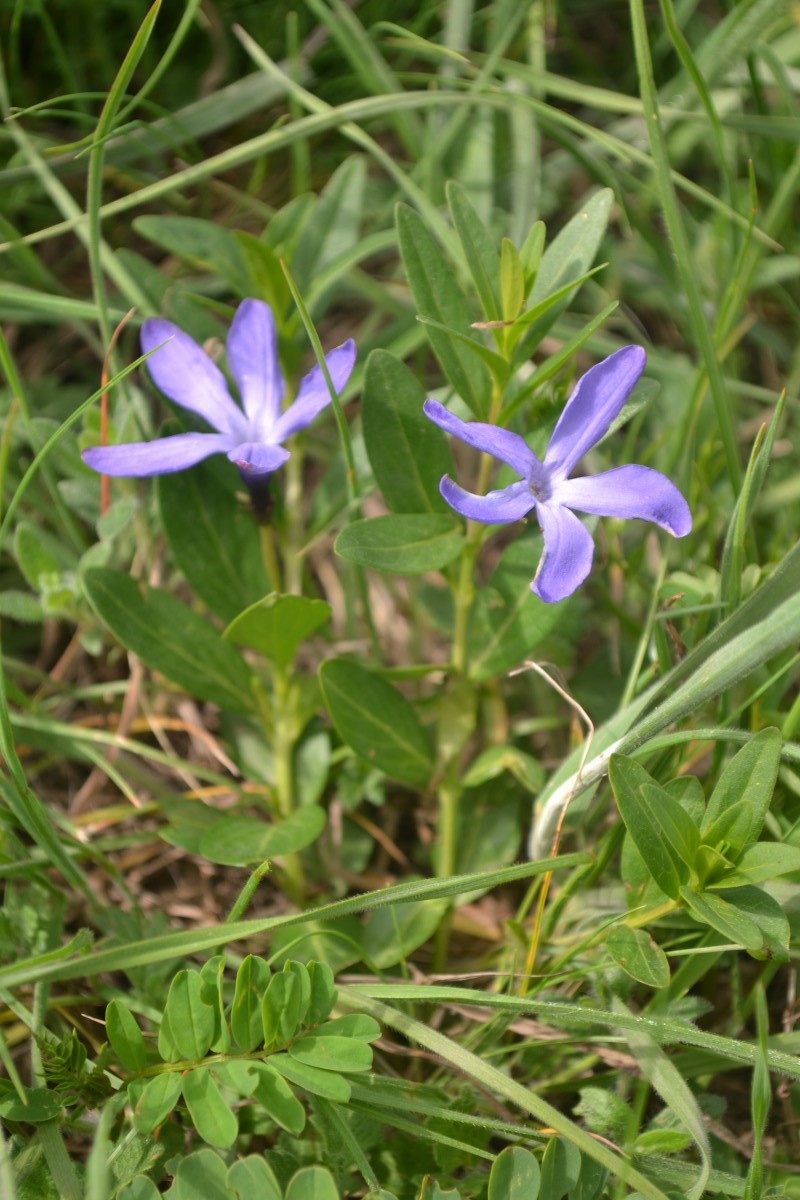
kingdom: Plantae
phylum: Tracheophyta
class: Magnoliopsida
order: Gentianales
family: Apocynaceae
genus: Vinca
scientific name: Vinca herbacea
